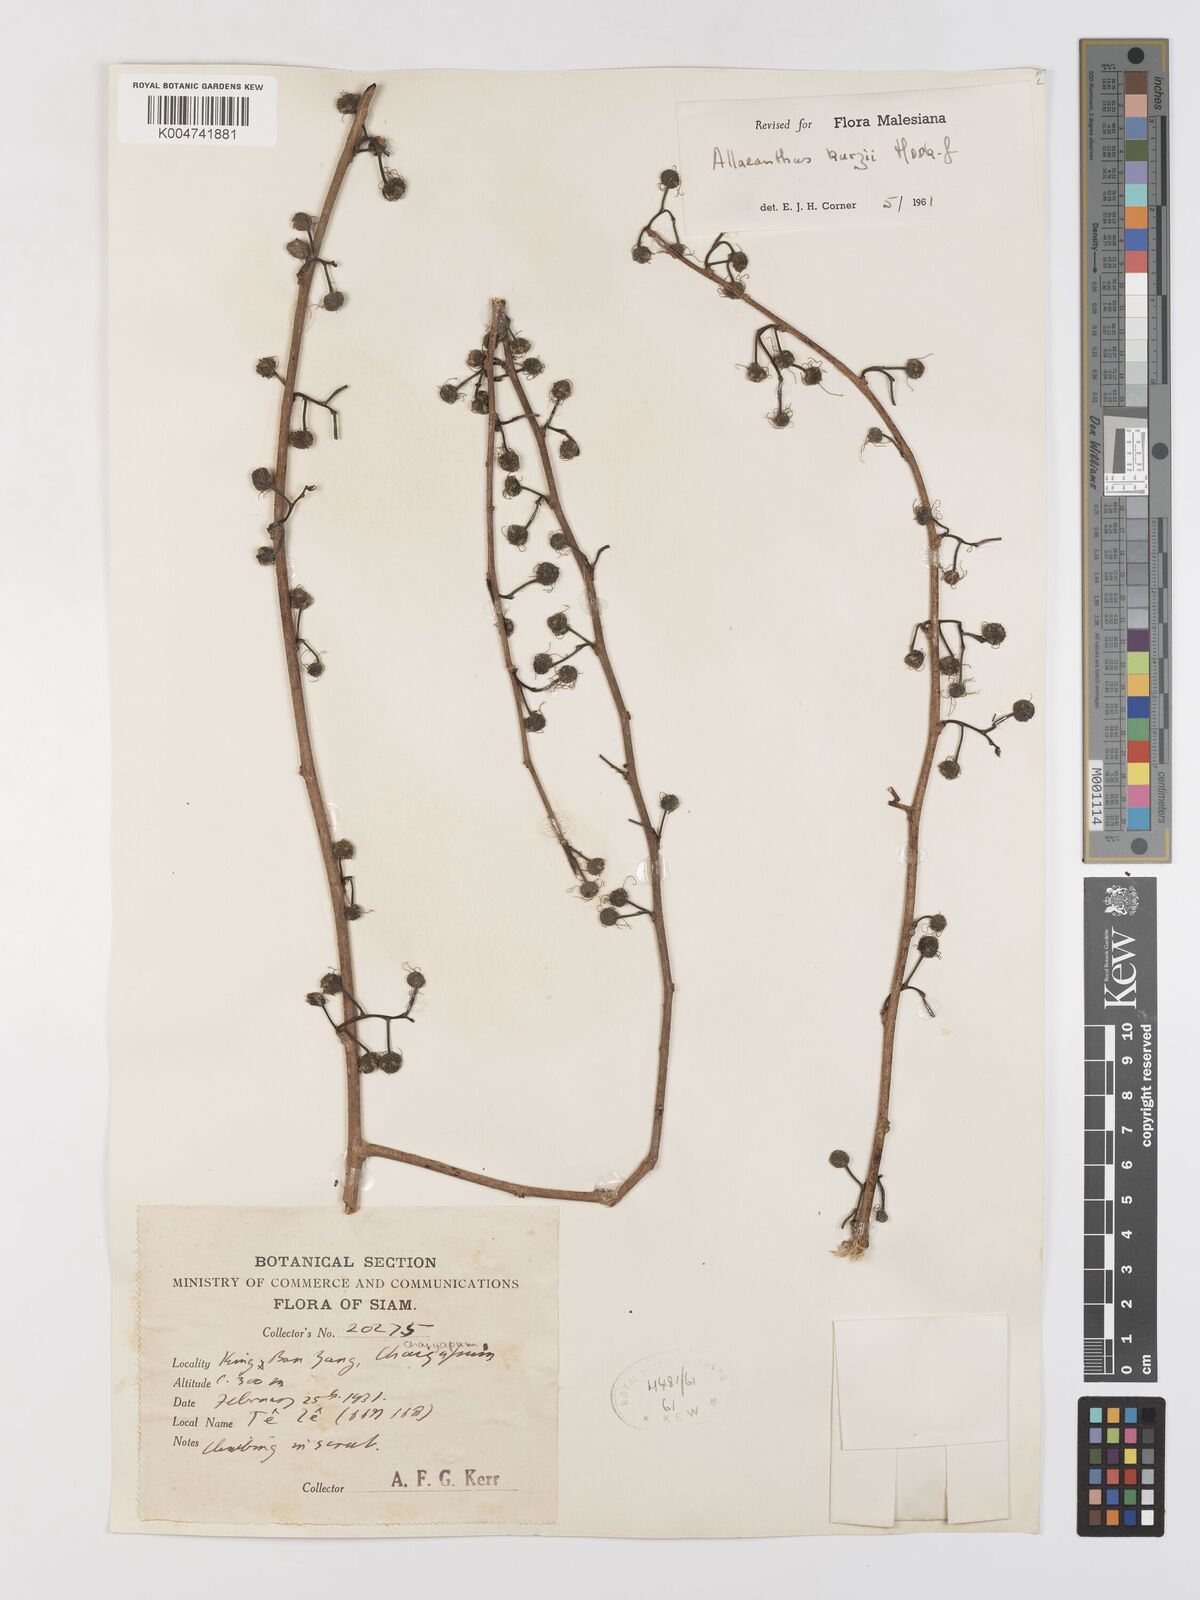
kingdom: Plantae
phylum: Tracheophyta
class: Magnoliopsida
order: Rosales
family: Moraceae
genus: Allaeanthus
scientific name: Allaeanthus kurzii
